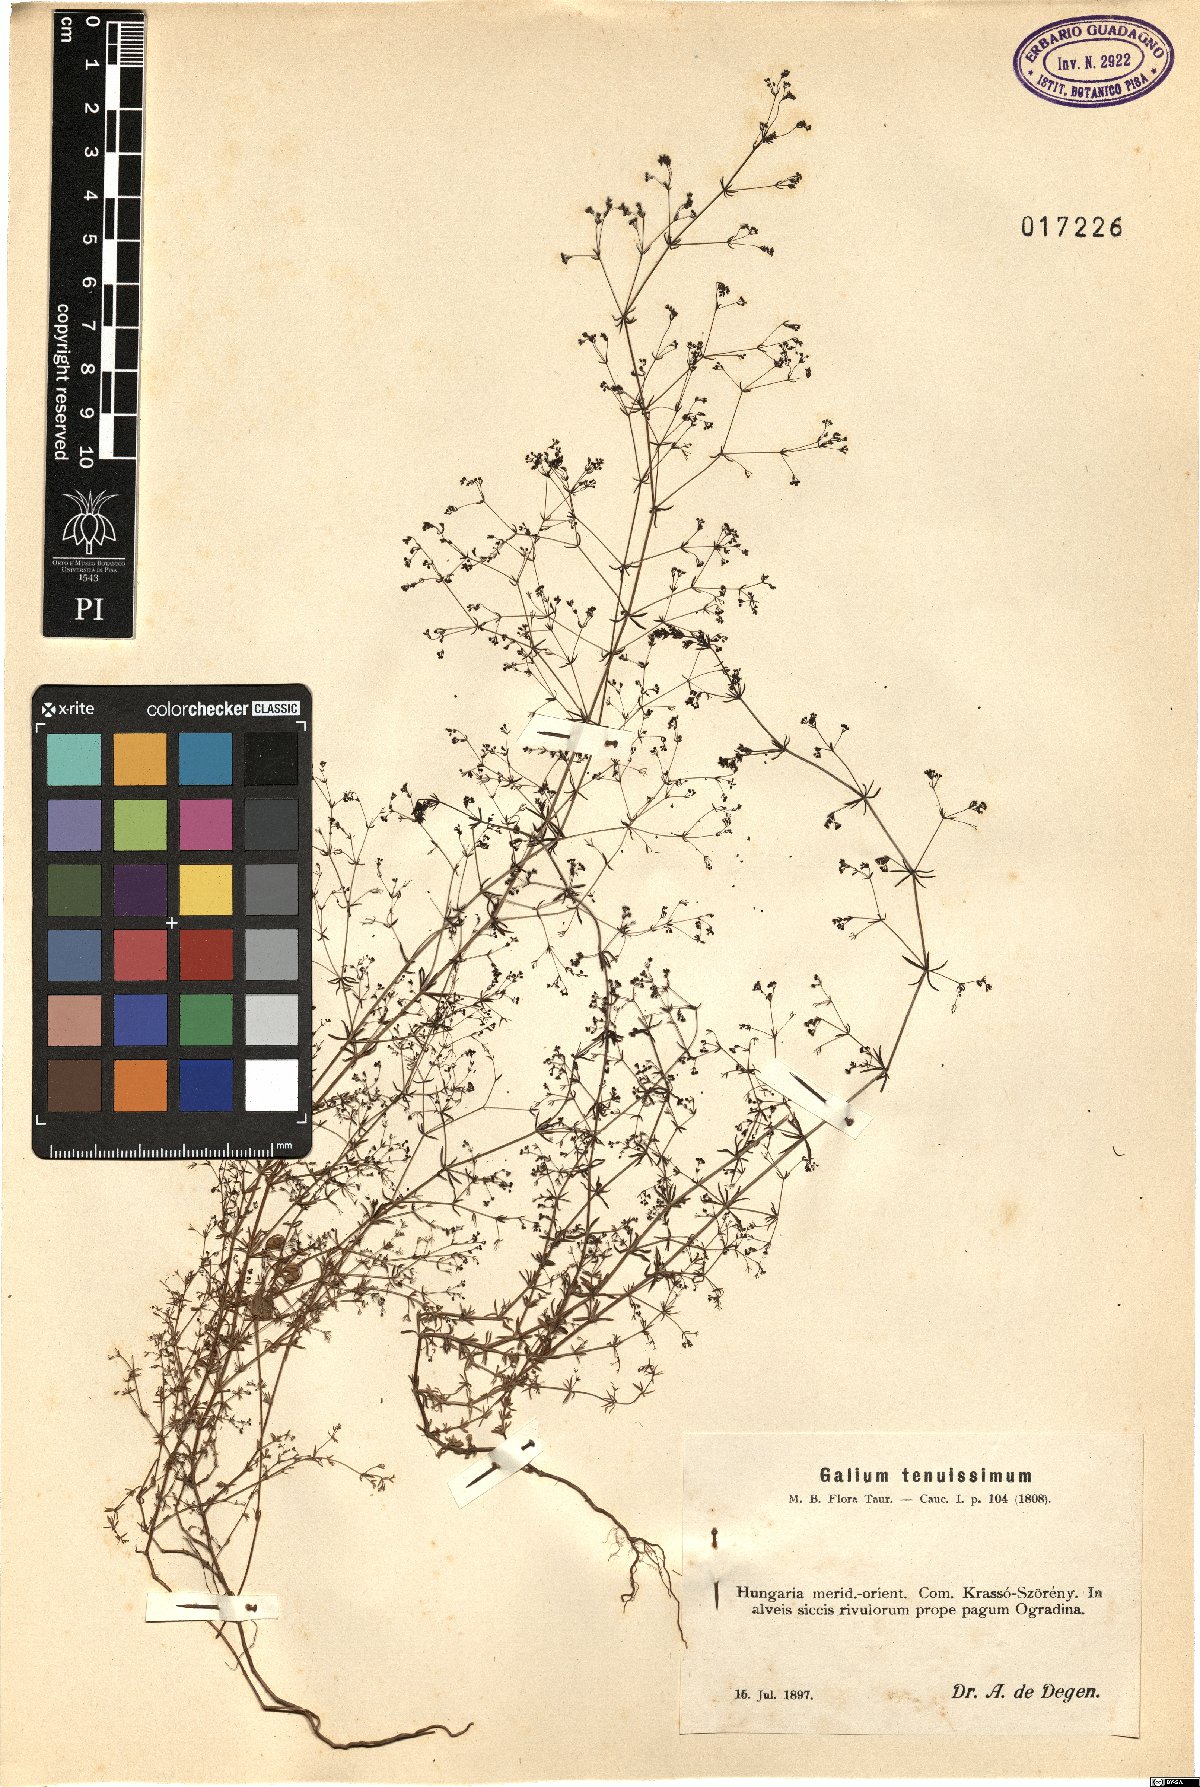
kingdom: Plantae
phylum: Tracheophyta
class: Magnoliopsida
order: Gentianales
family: Rubiaceae
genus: Galium
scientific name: Galium tenuissimum
